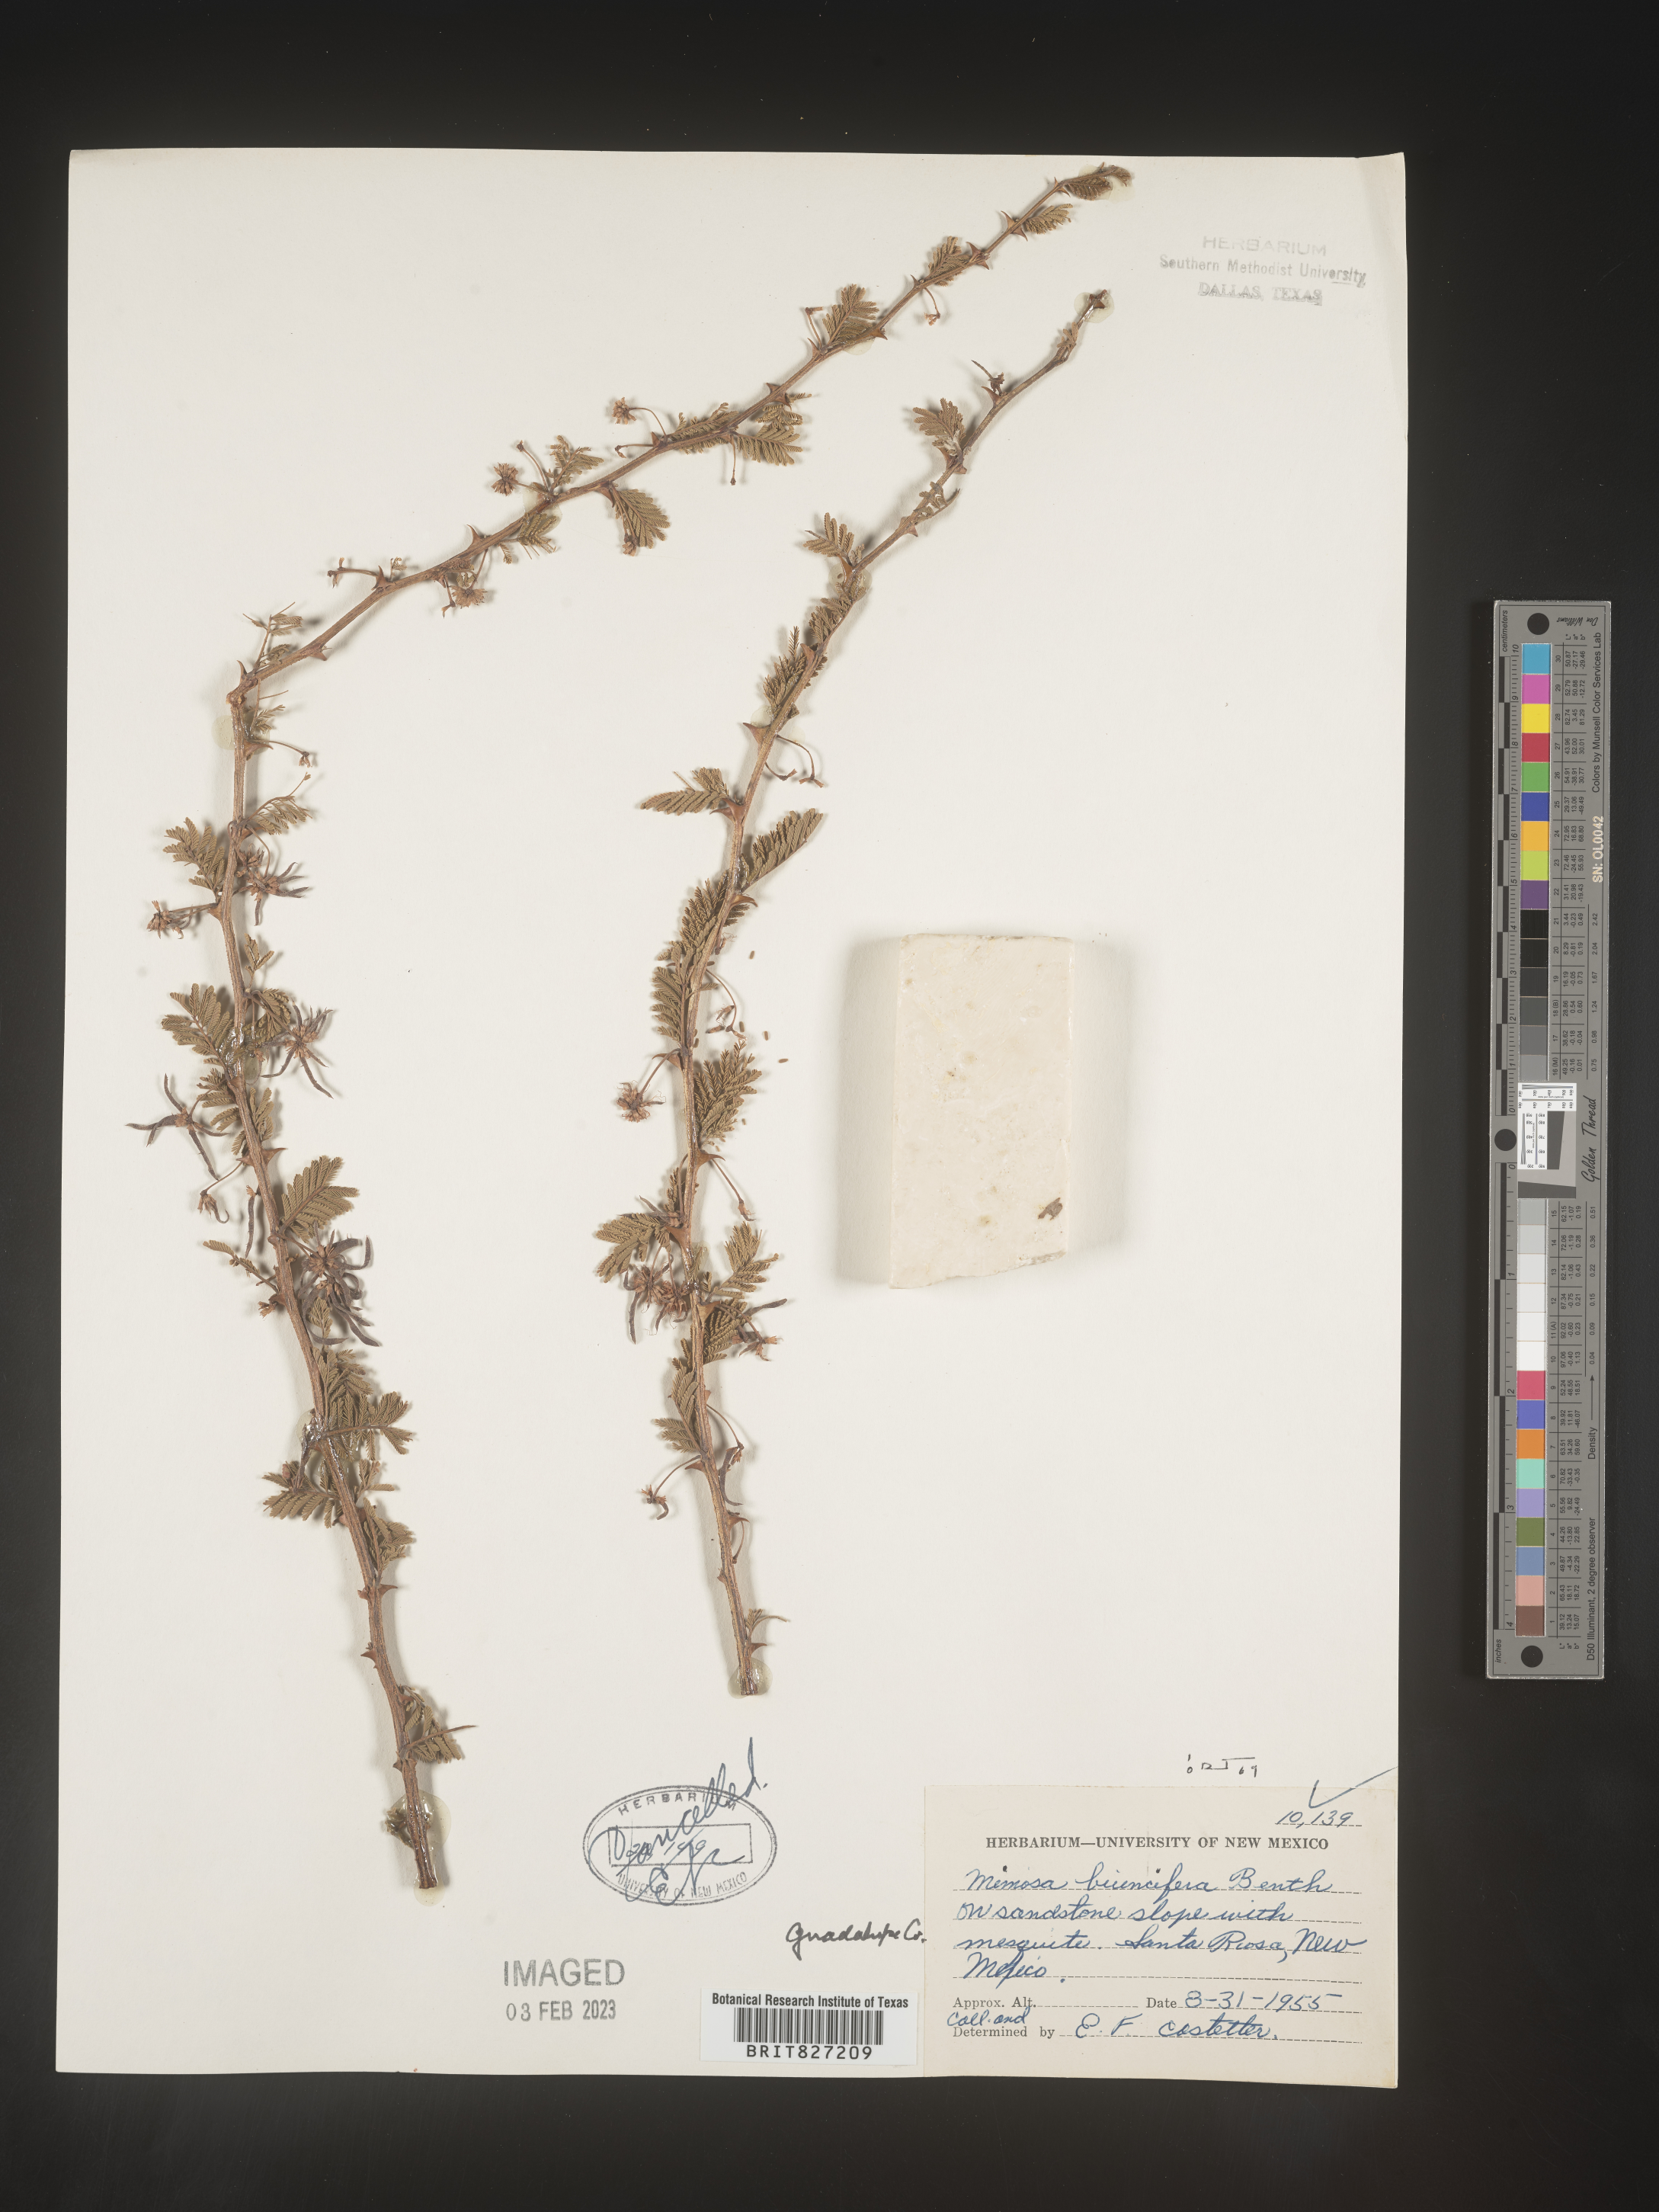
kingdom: Plantae
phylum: Tracheophyta
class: Magnoliopsida
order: Fabales
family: Fabaceae
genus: Mimosa
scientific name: Mimosa aculeaticarpa
